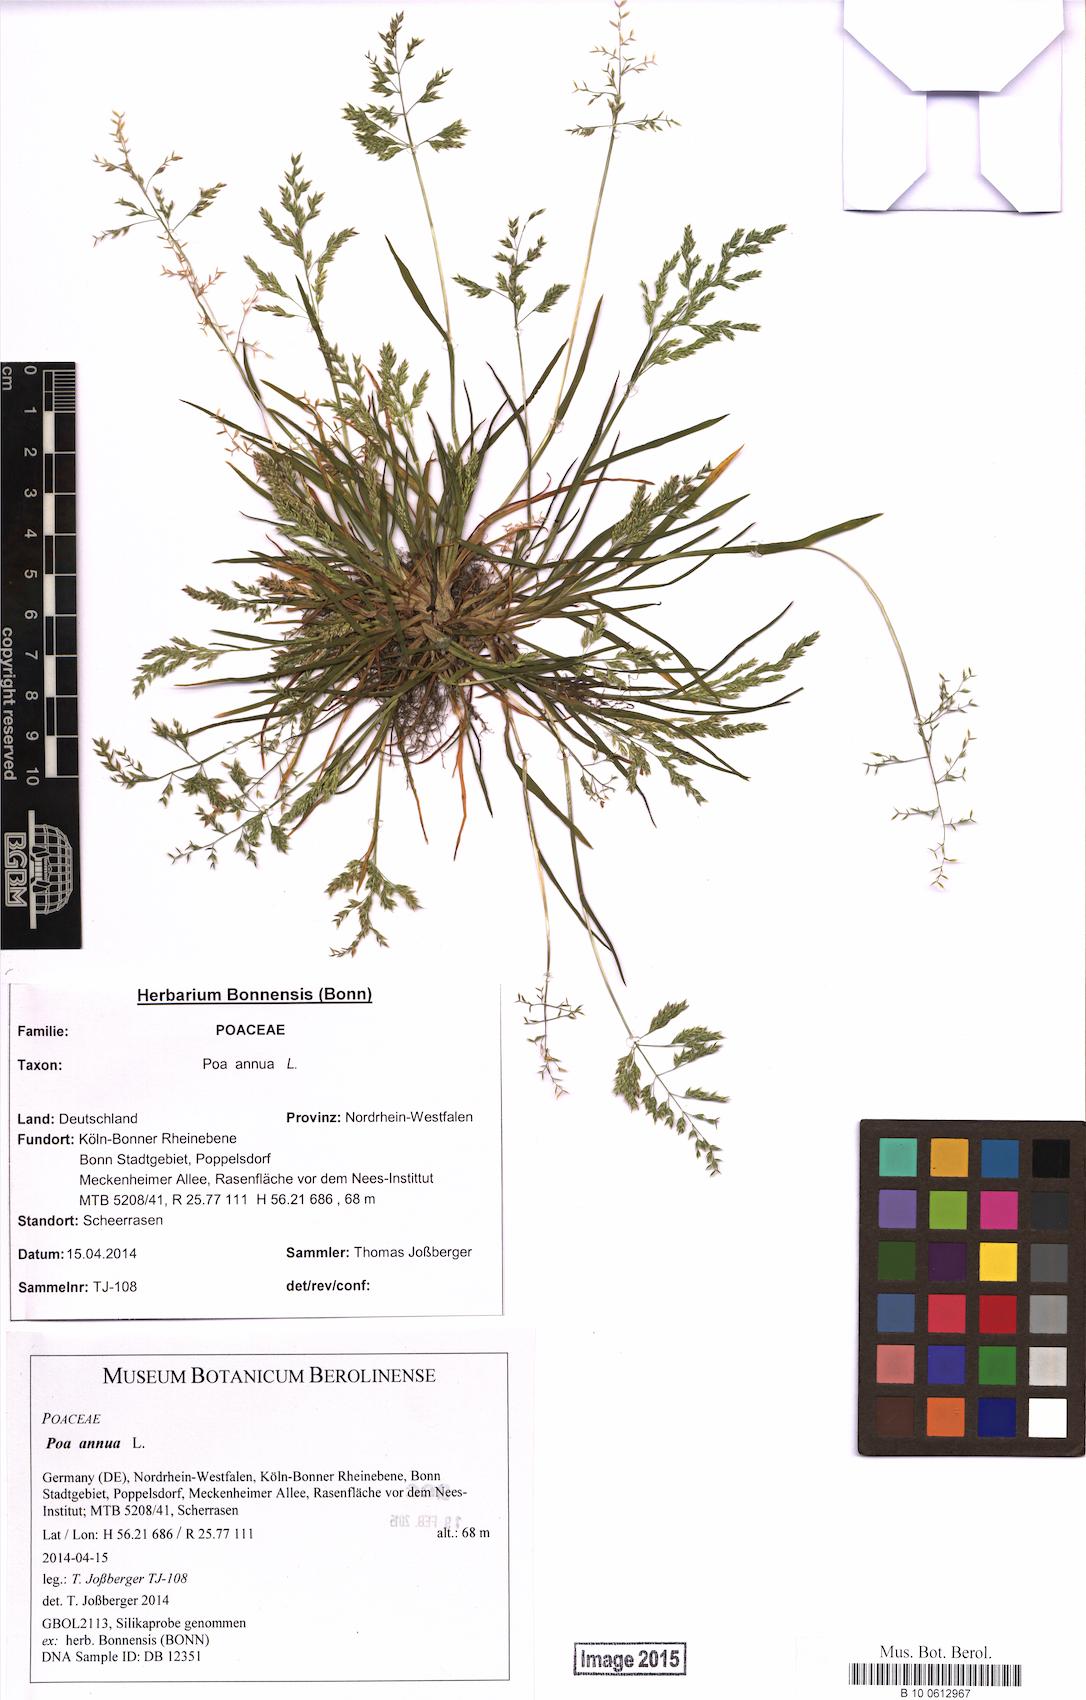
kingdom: Plantae
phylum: Tracheophyta
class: Liliopsida
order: Poales
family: Poaceae
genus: Poa
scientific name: Poa annua
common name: Annual bluegrass
